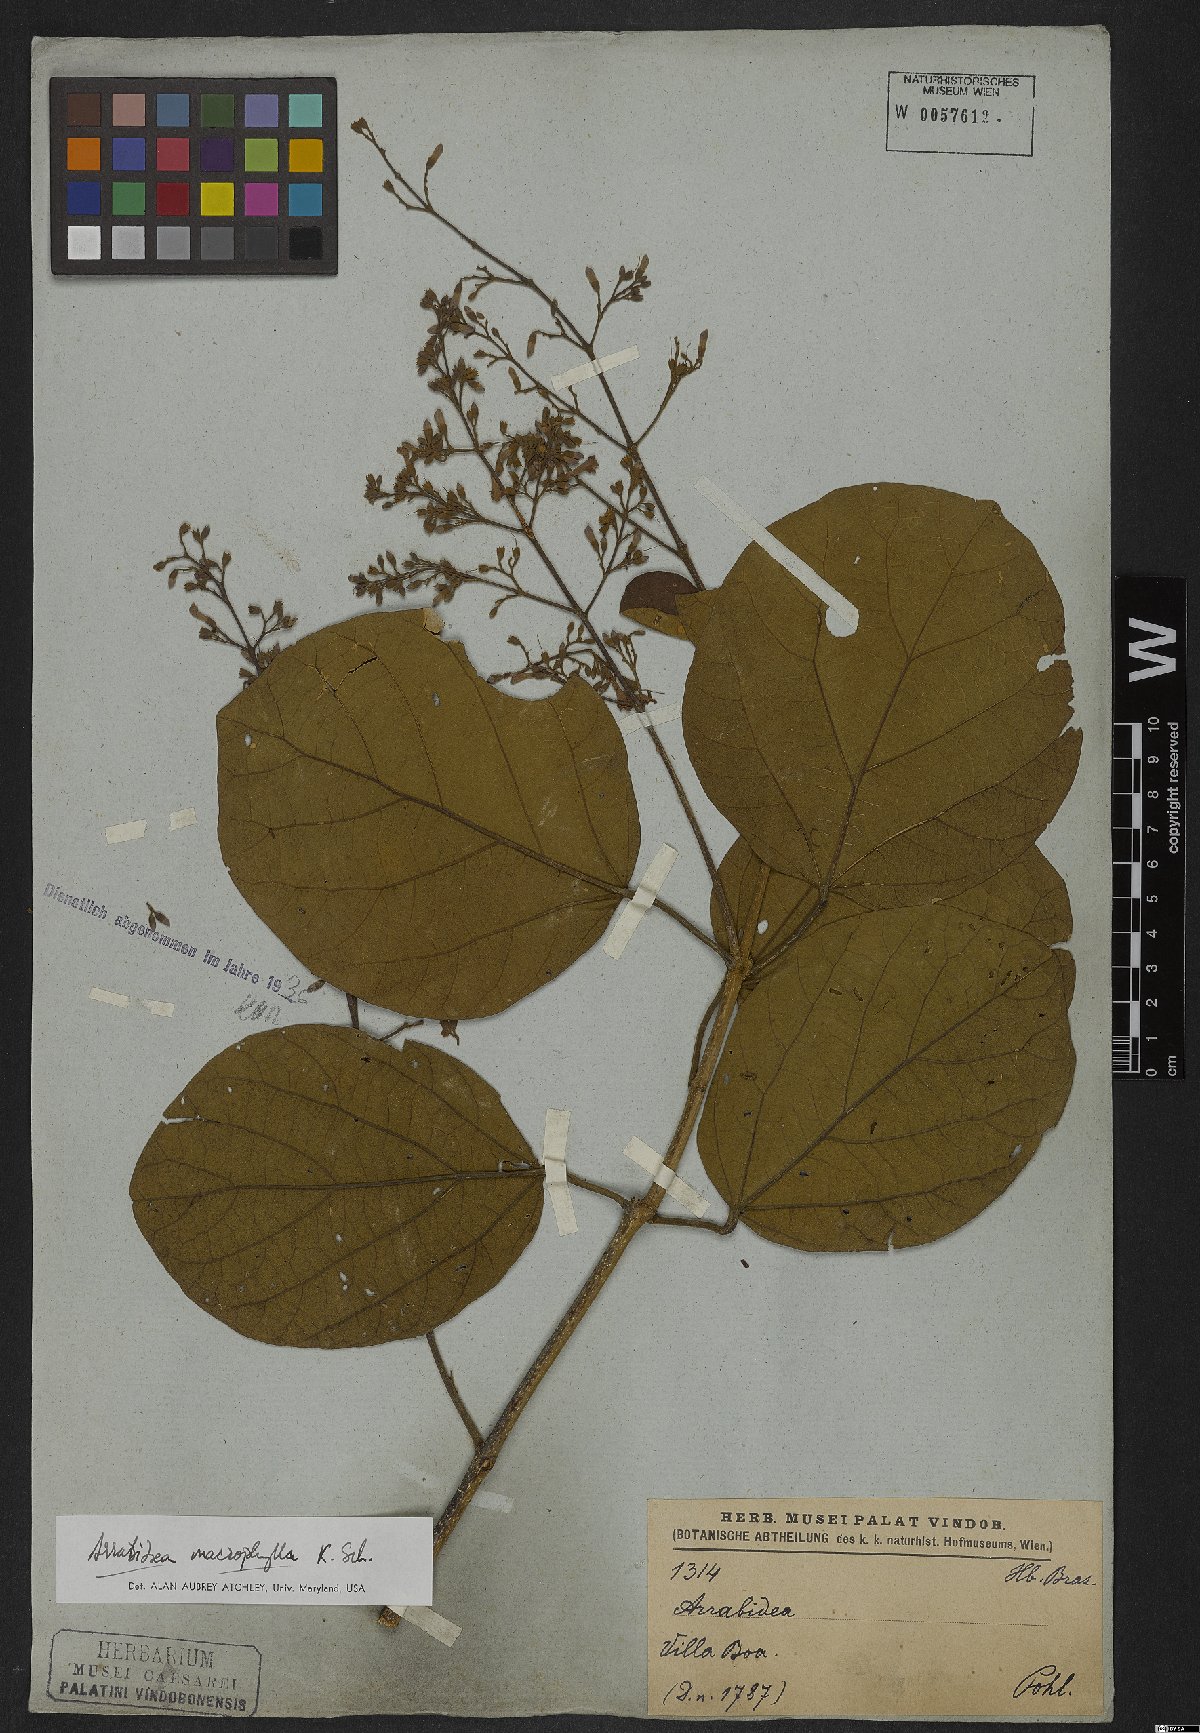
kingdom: Plantae
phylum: Tracheophyta
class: Magnoliopsida
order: Lamiales
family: Bignoniaceae
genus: Xylophragma
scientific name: Xylophragma platyphyllum
